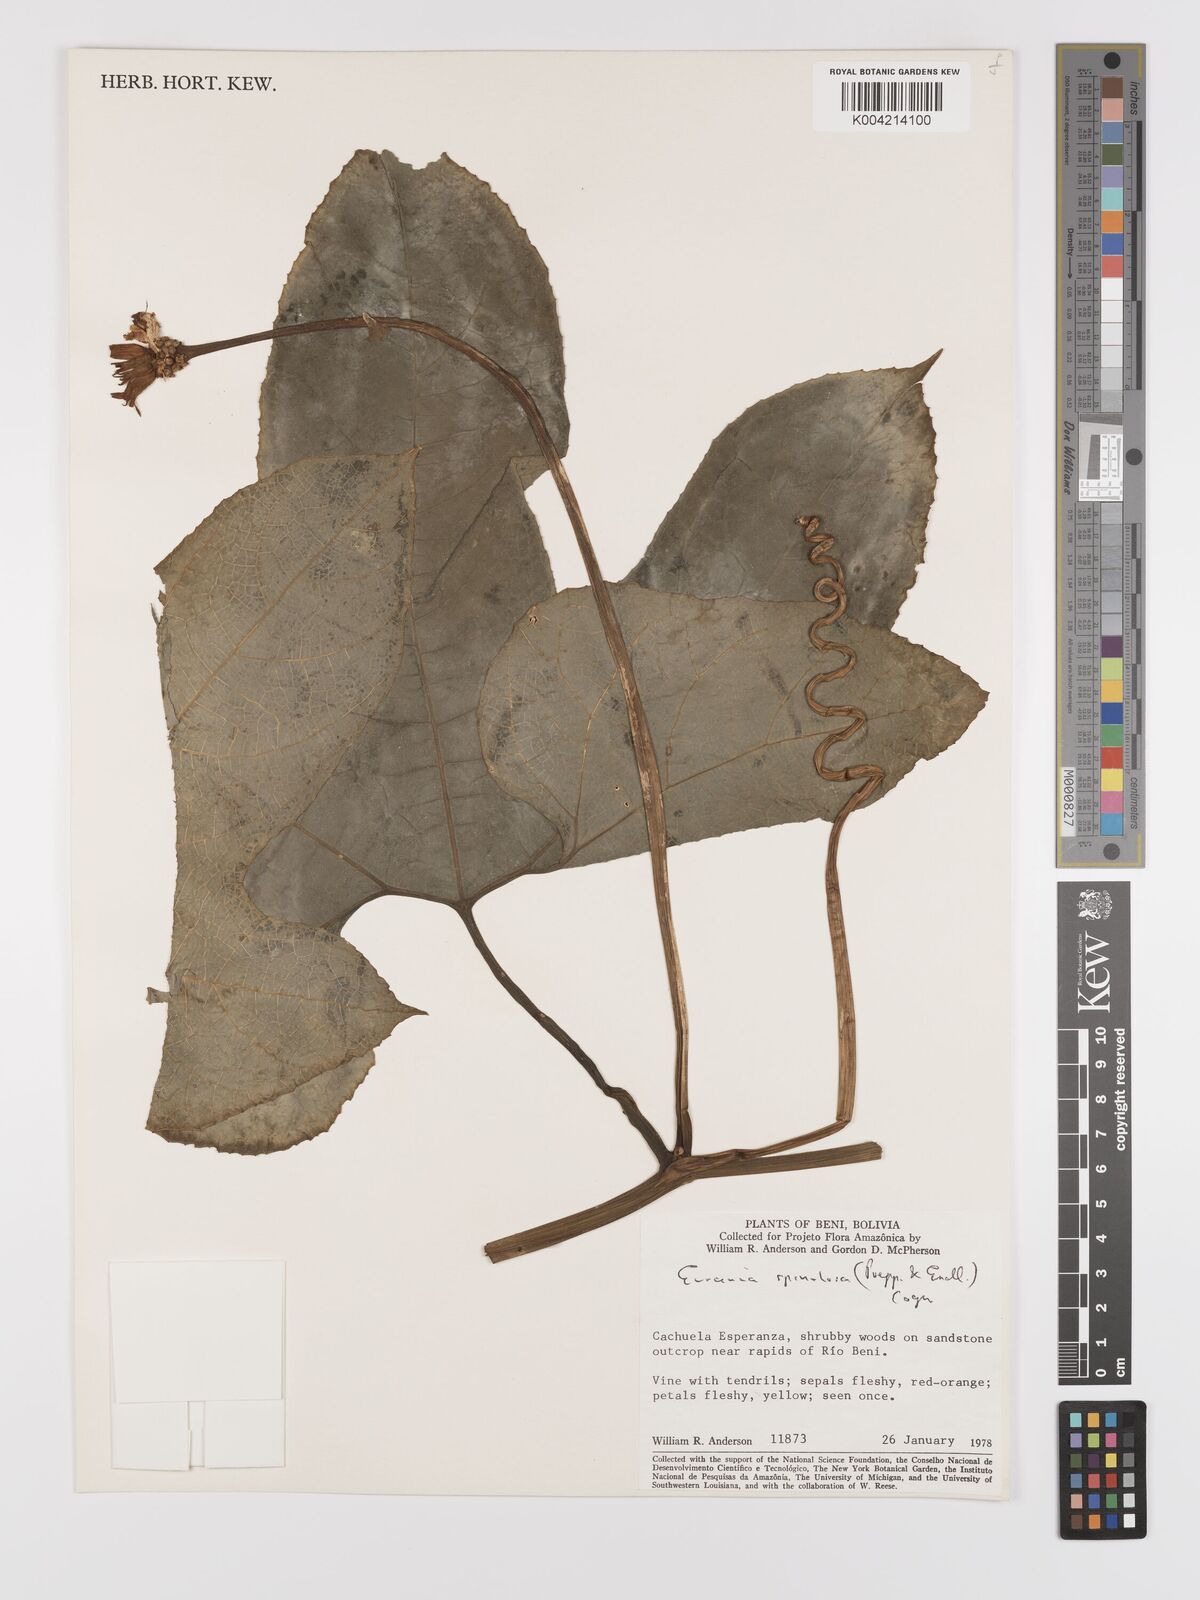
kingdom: Plantae
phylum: Tracheophyta
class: Magnoliopsida
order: Cucurbitales
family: Cucurbitaceae
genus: Gurania
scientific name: Gurania lobata
